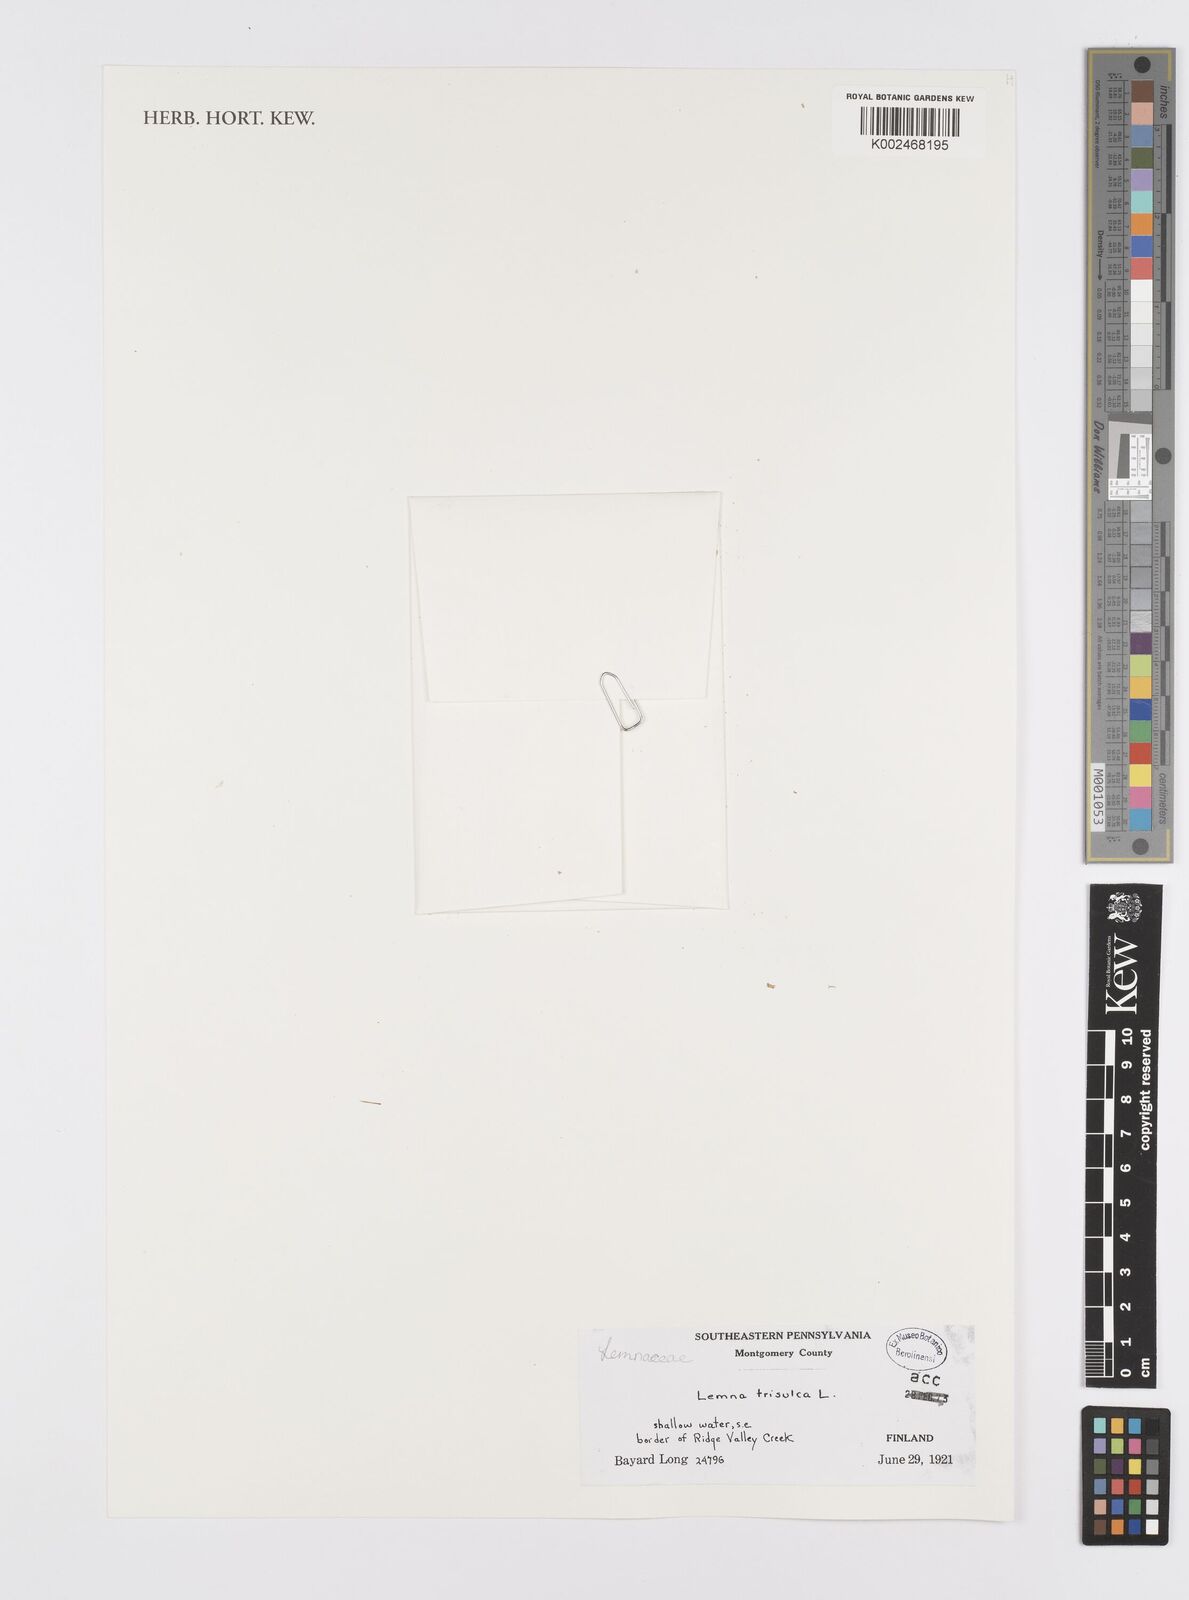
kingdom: Plantae
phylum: Tracheophyta
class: Liliopsida
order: Alismatales
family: Araceae
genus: Lemna
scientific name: Lemna trisulca
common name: Ivy-leaved duckweed
